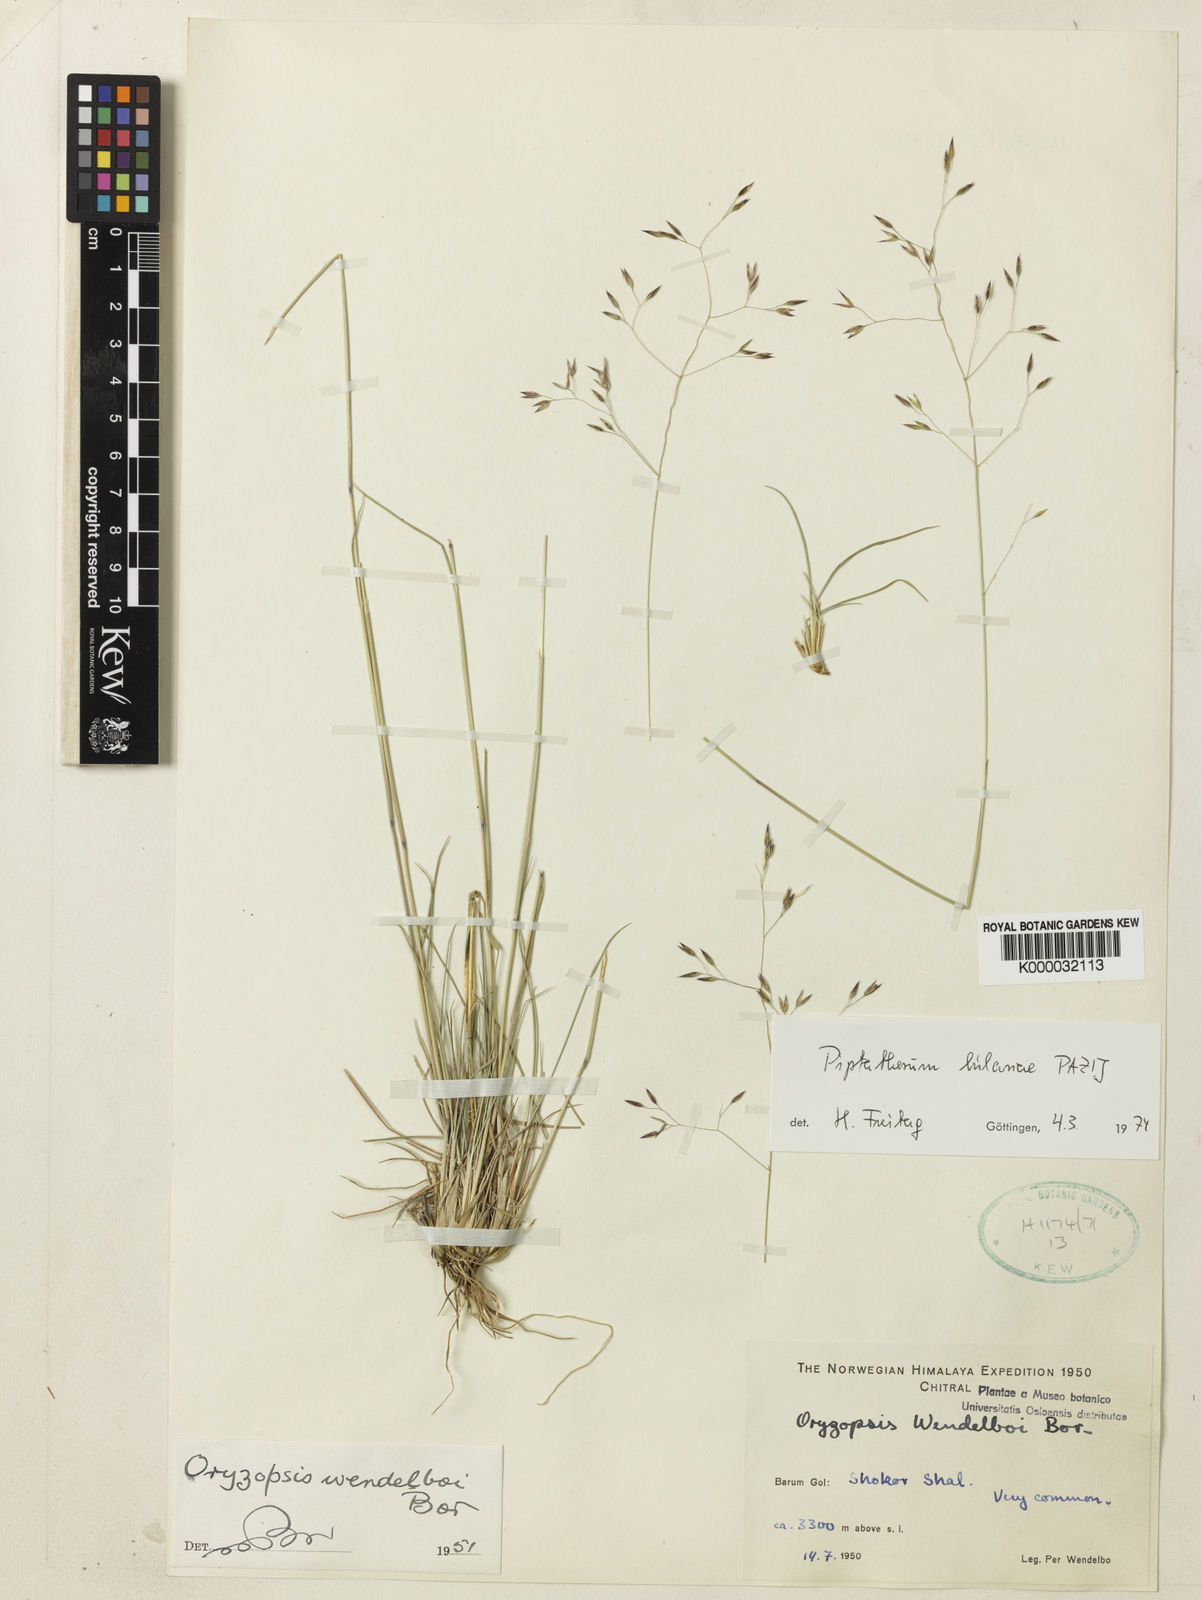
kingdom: Plantae
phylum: Tracheophyta
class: Liliopsida
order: Poales
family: Poaceae
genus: Piptatherum
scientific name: Piptatherum hilariae
